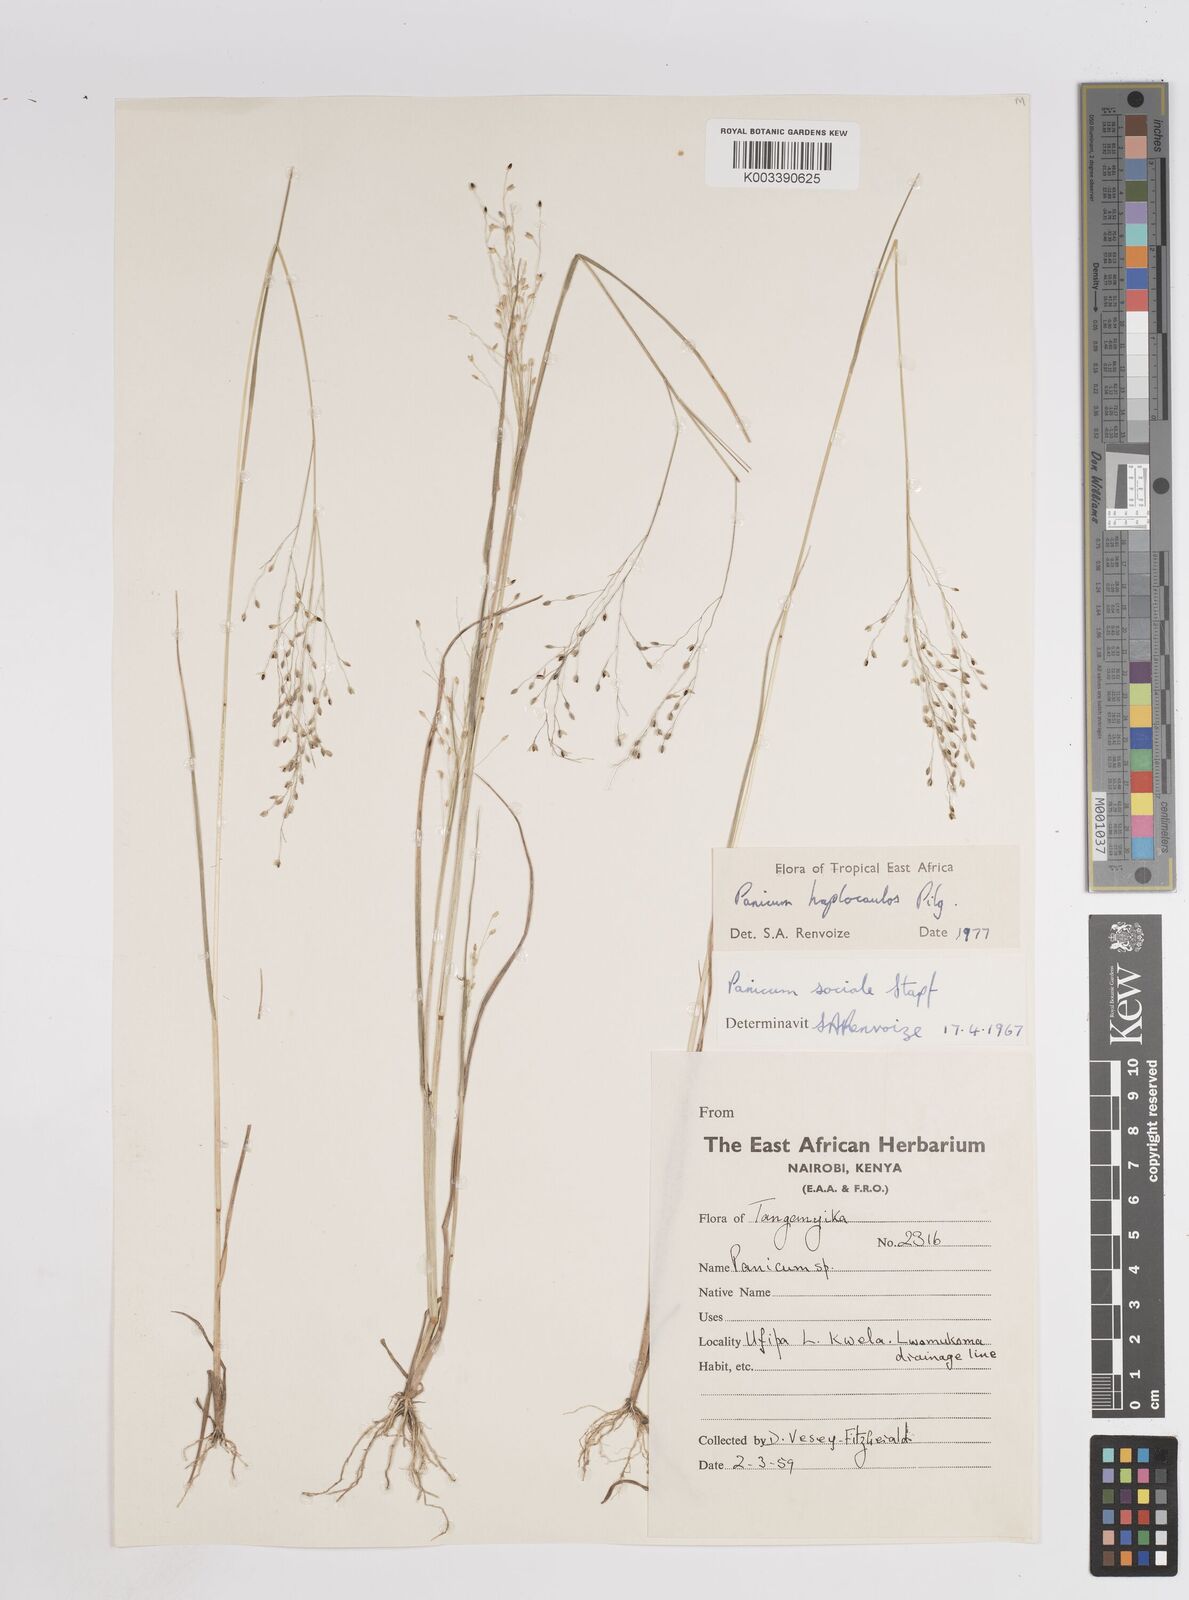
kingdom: Plantae
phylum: Tracheophyta
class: Liliopsida
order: Poales
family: Poaceae
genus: Panicum
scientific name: Panicum haplocaulos
